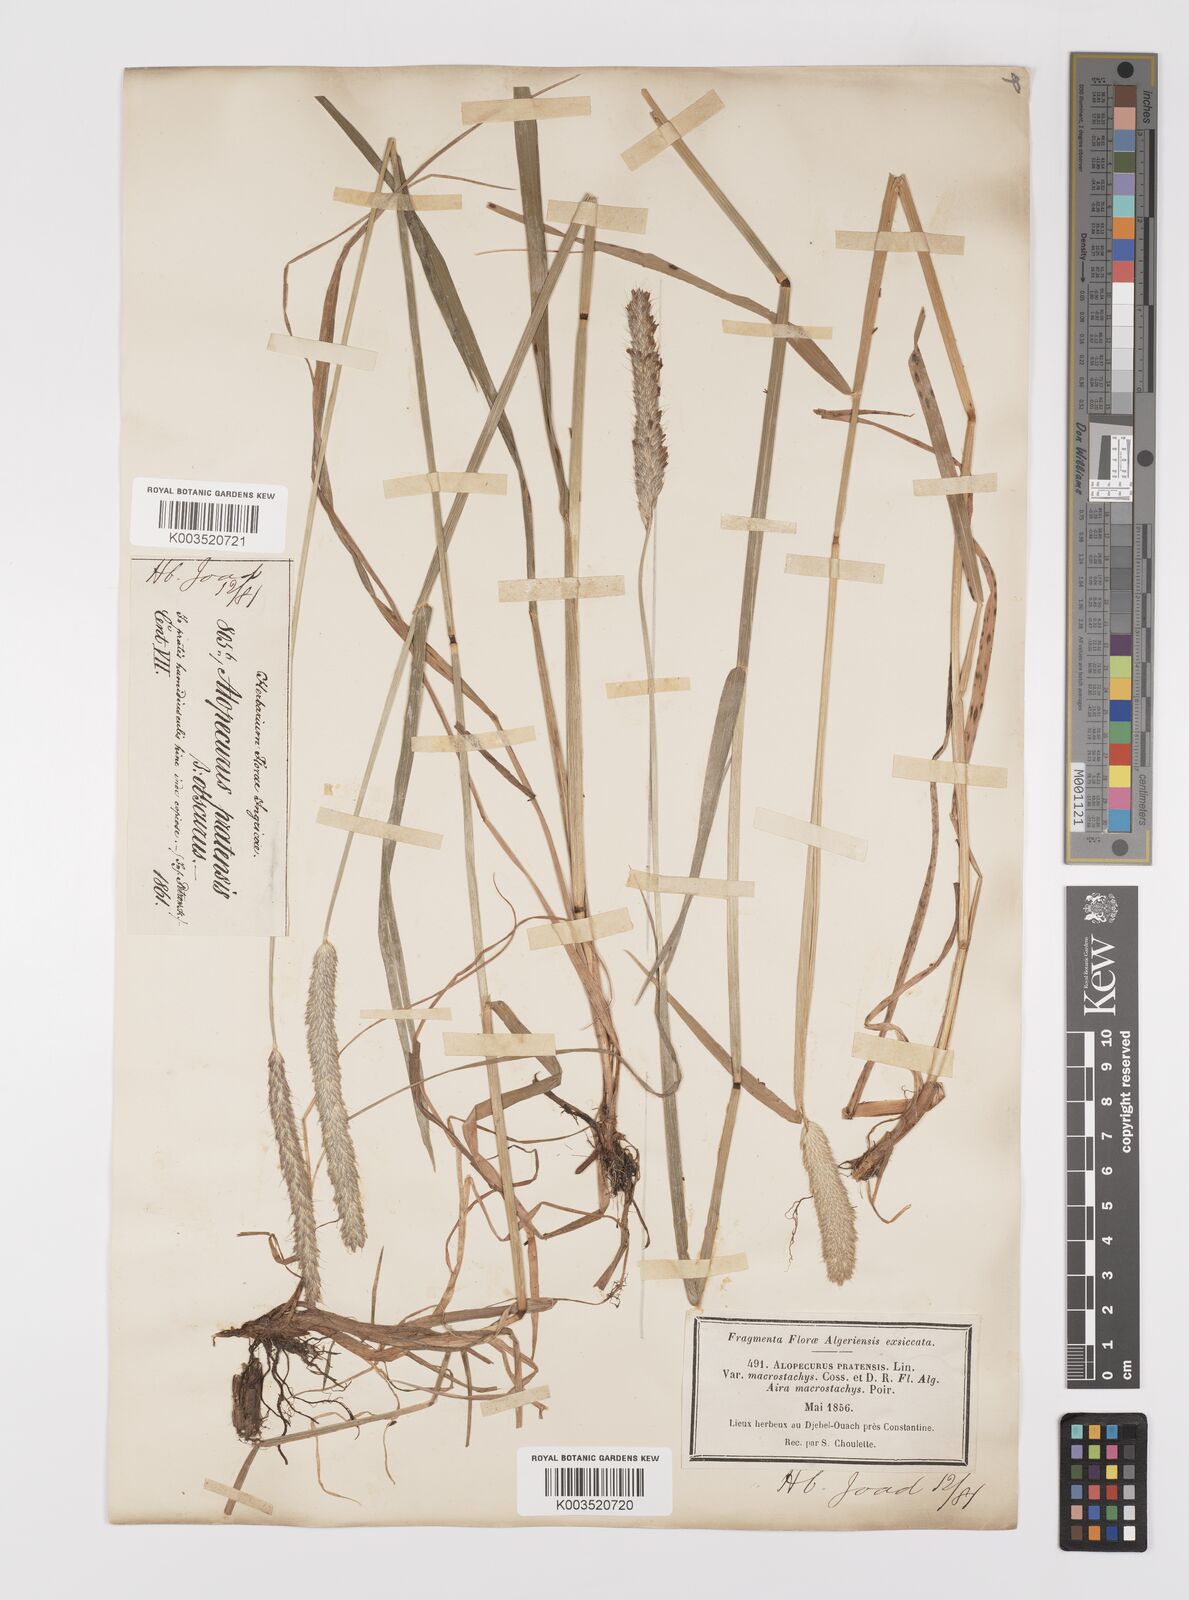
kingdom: Plantae
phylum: Tracheophyta
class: Liliopsida
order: Poales
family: Poaceae
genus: Alopecurus
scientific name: Alopecurus pratensis
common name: Meadow foxtail
